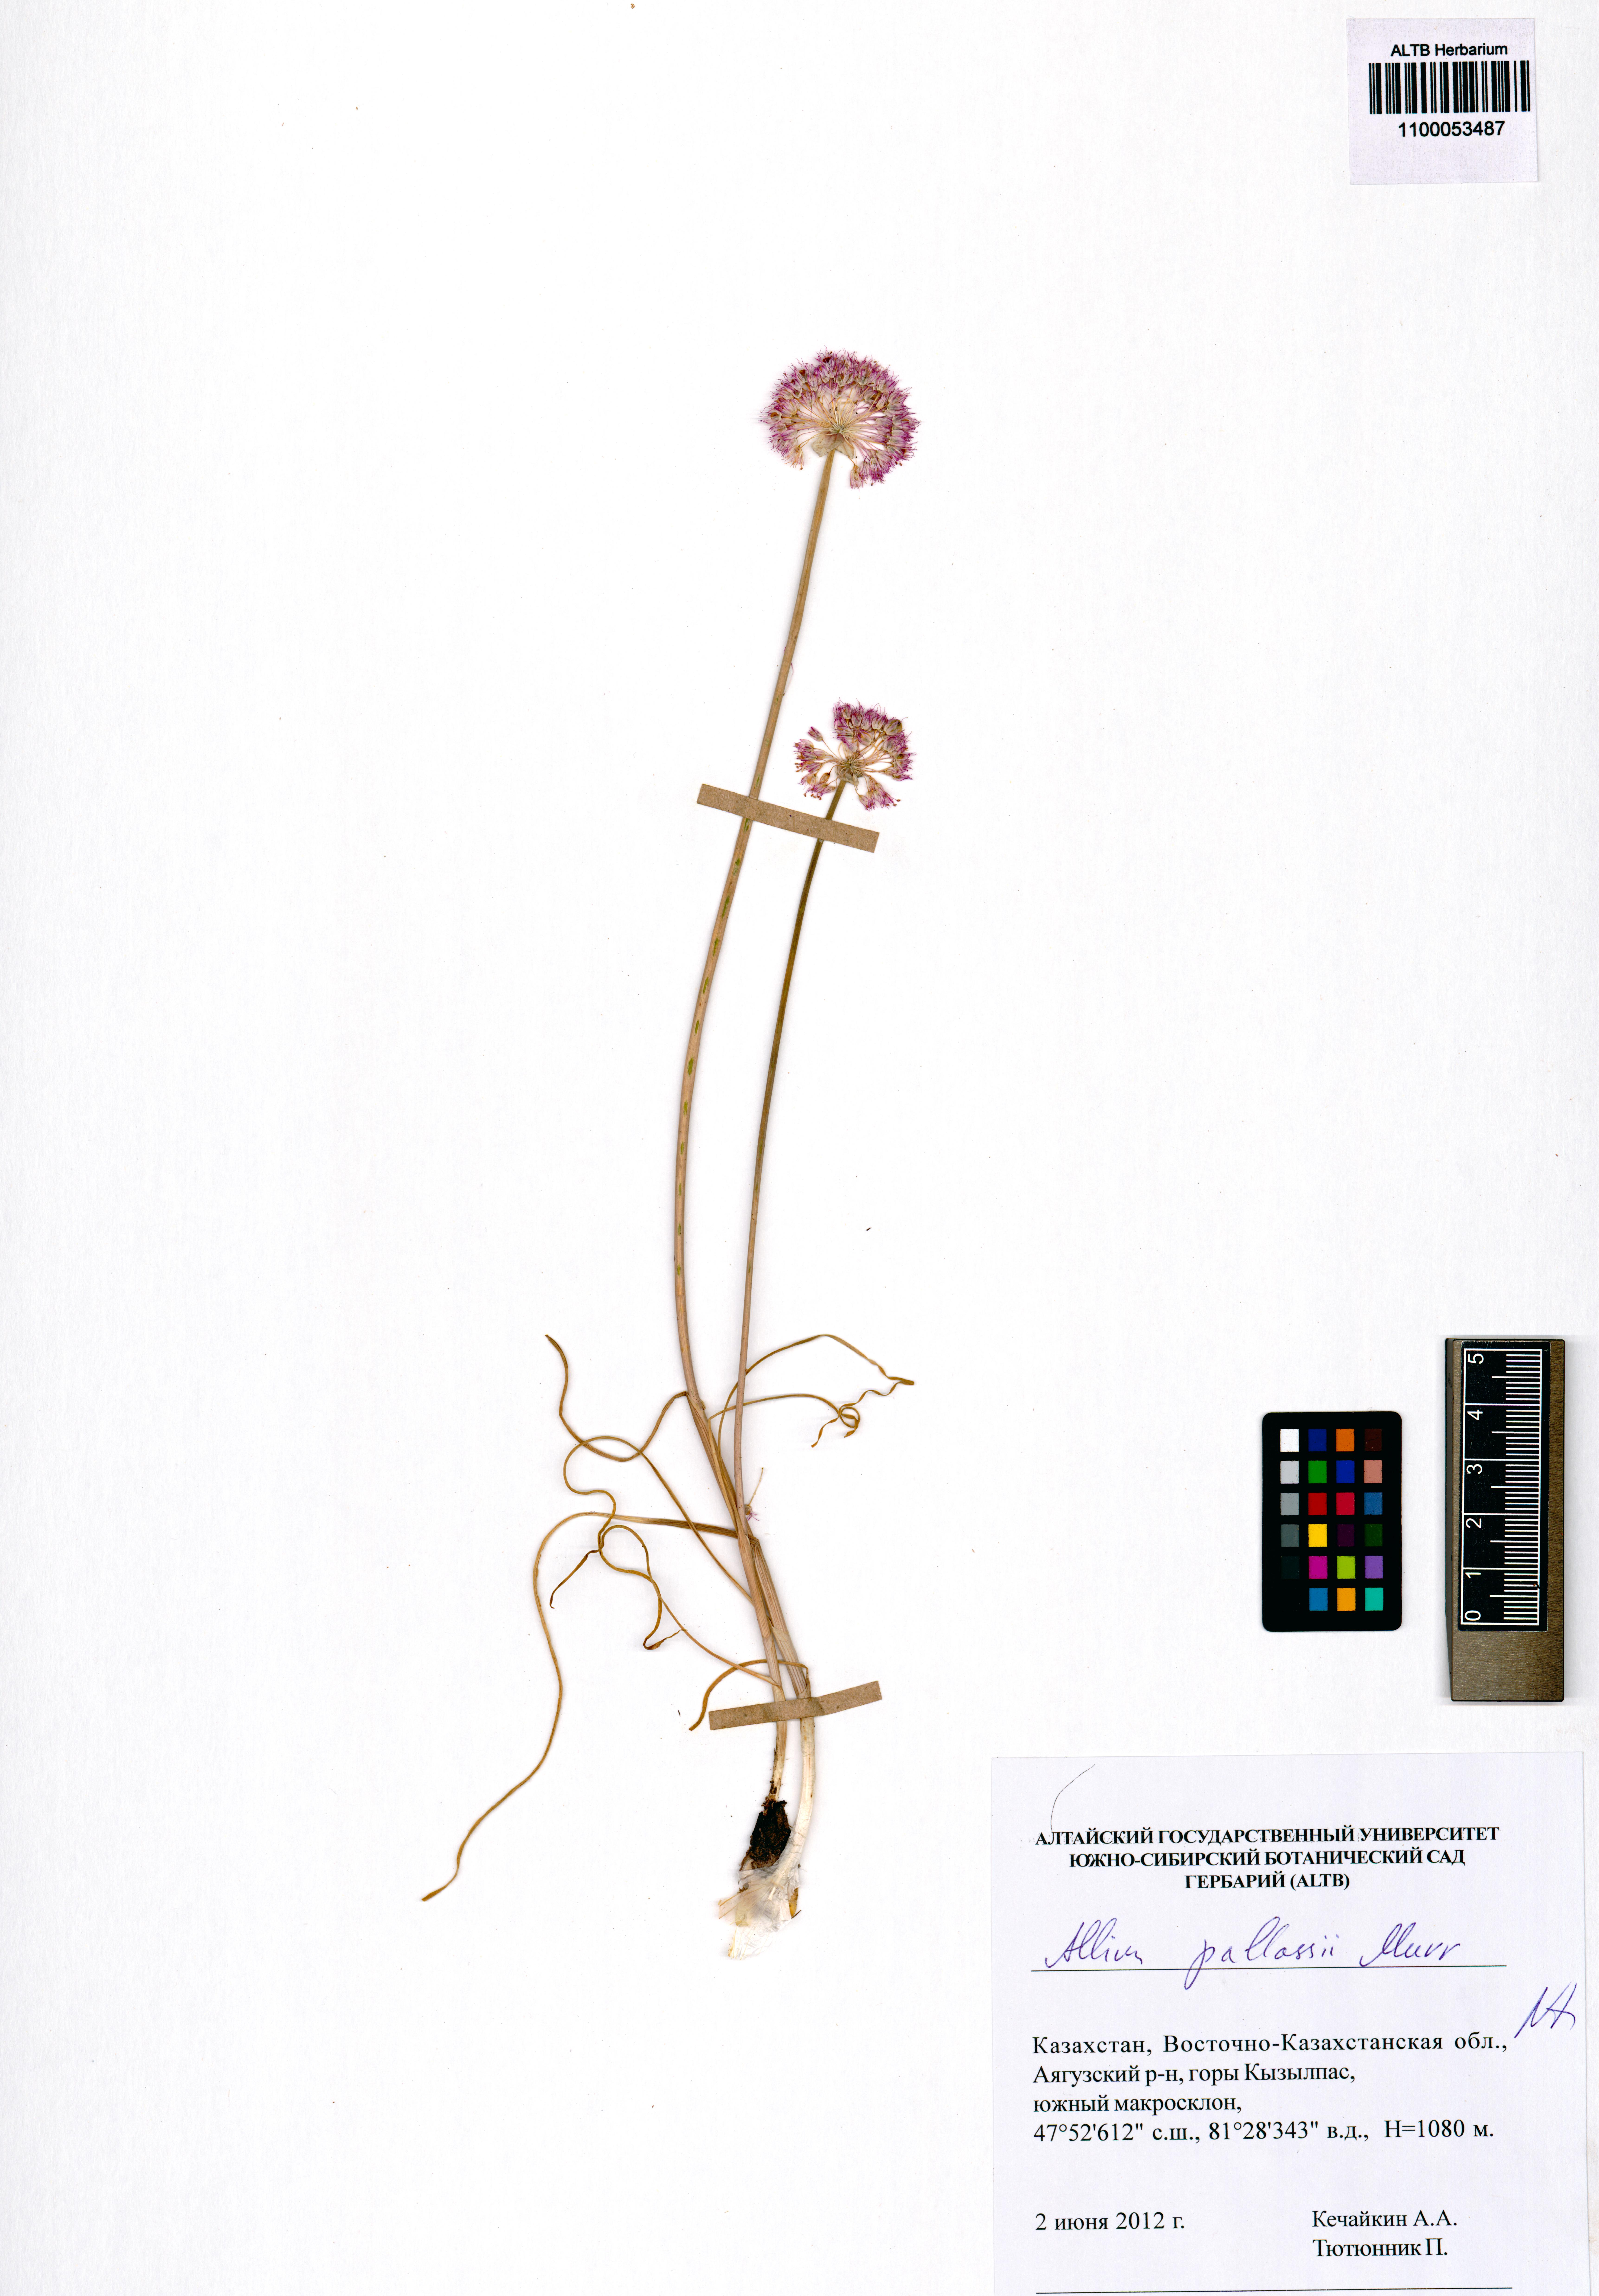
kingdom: Plantae
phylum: Tracheophyta
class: Liliopsida
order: Asparagales
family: Amaryllidaceae
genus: Allium
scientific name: Allium pallasii
